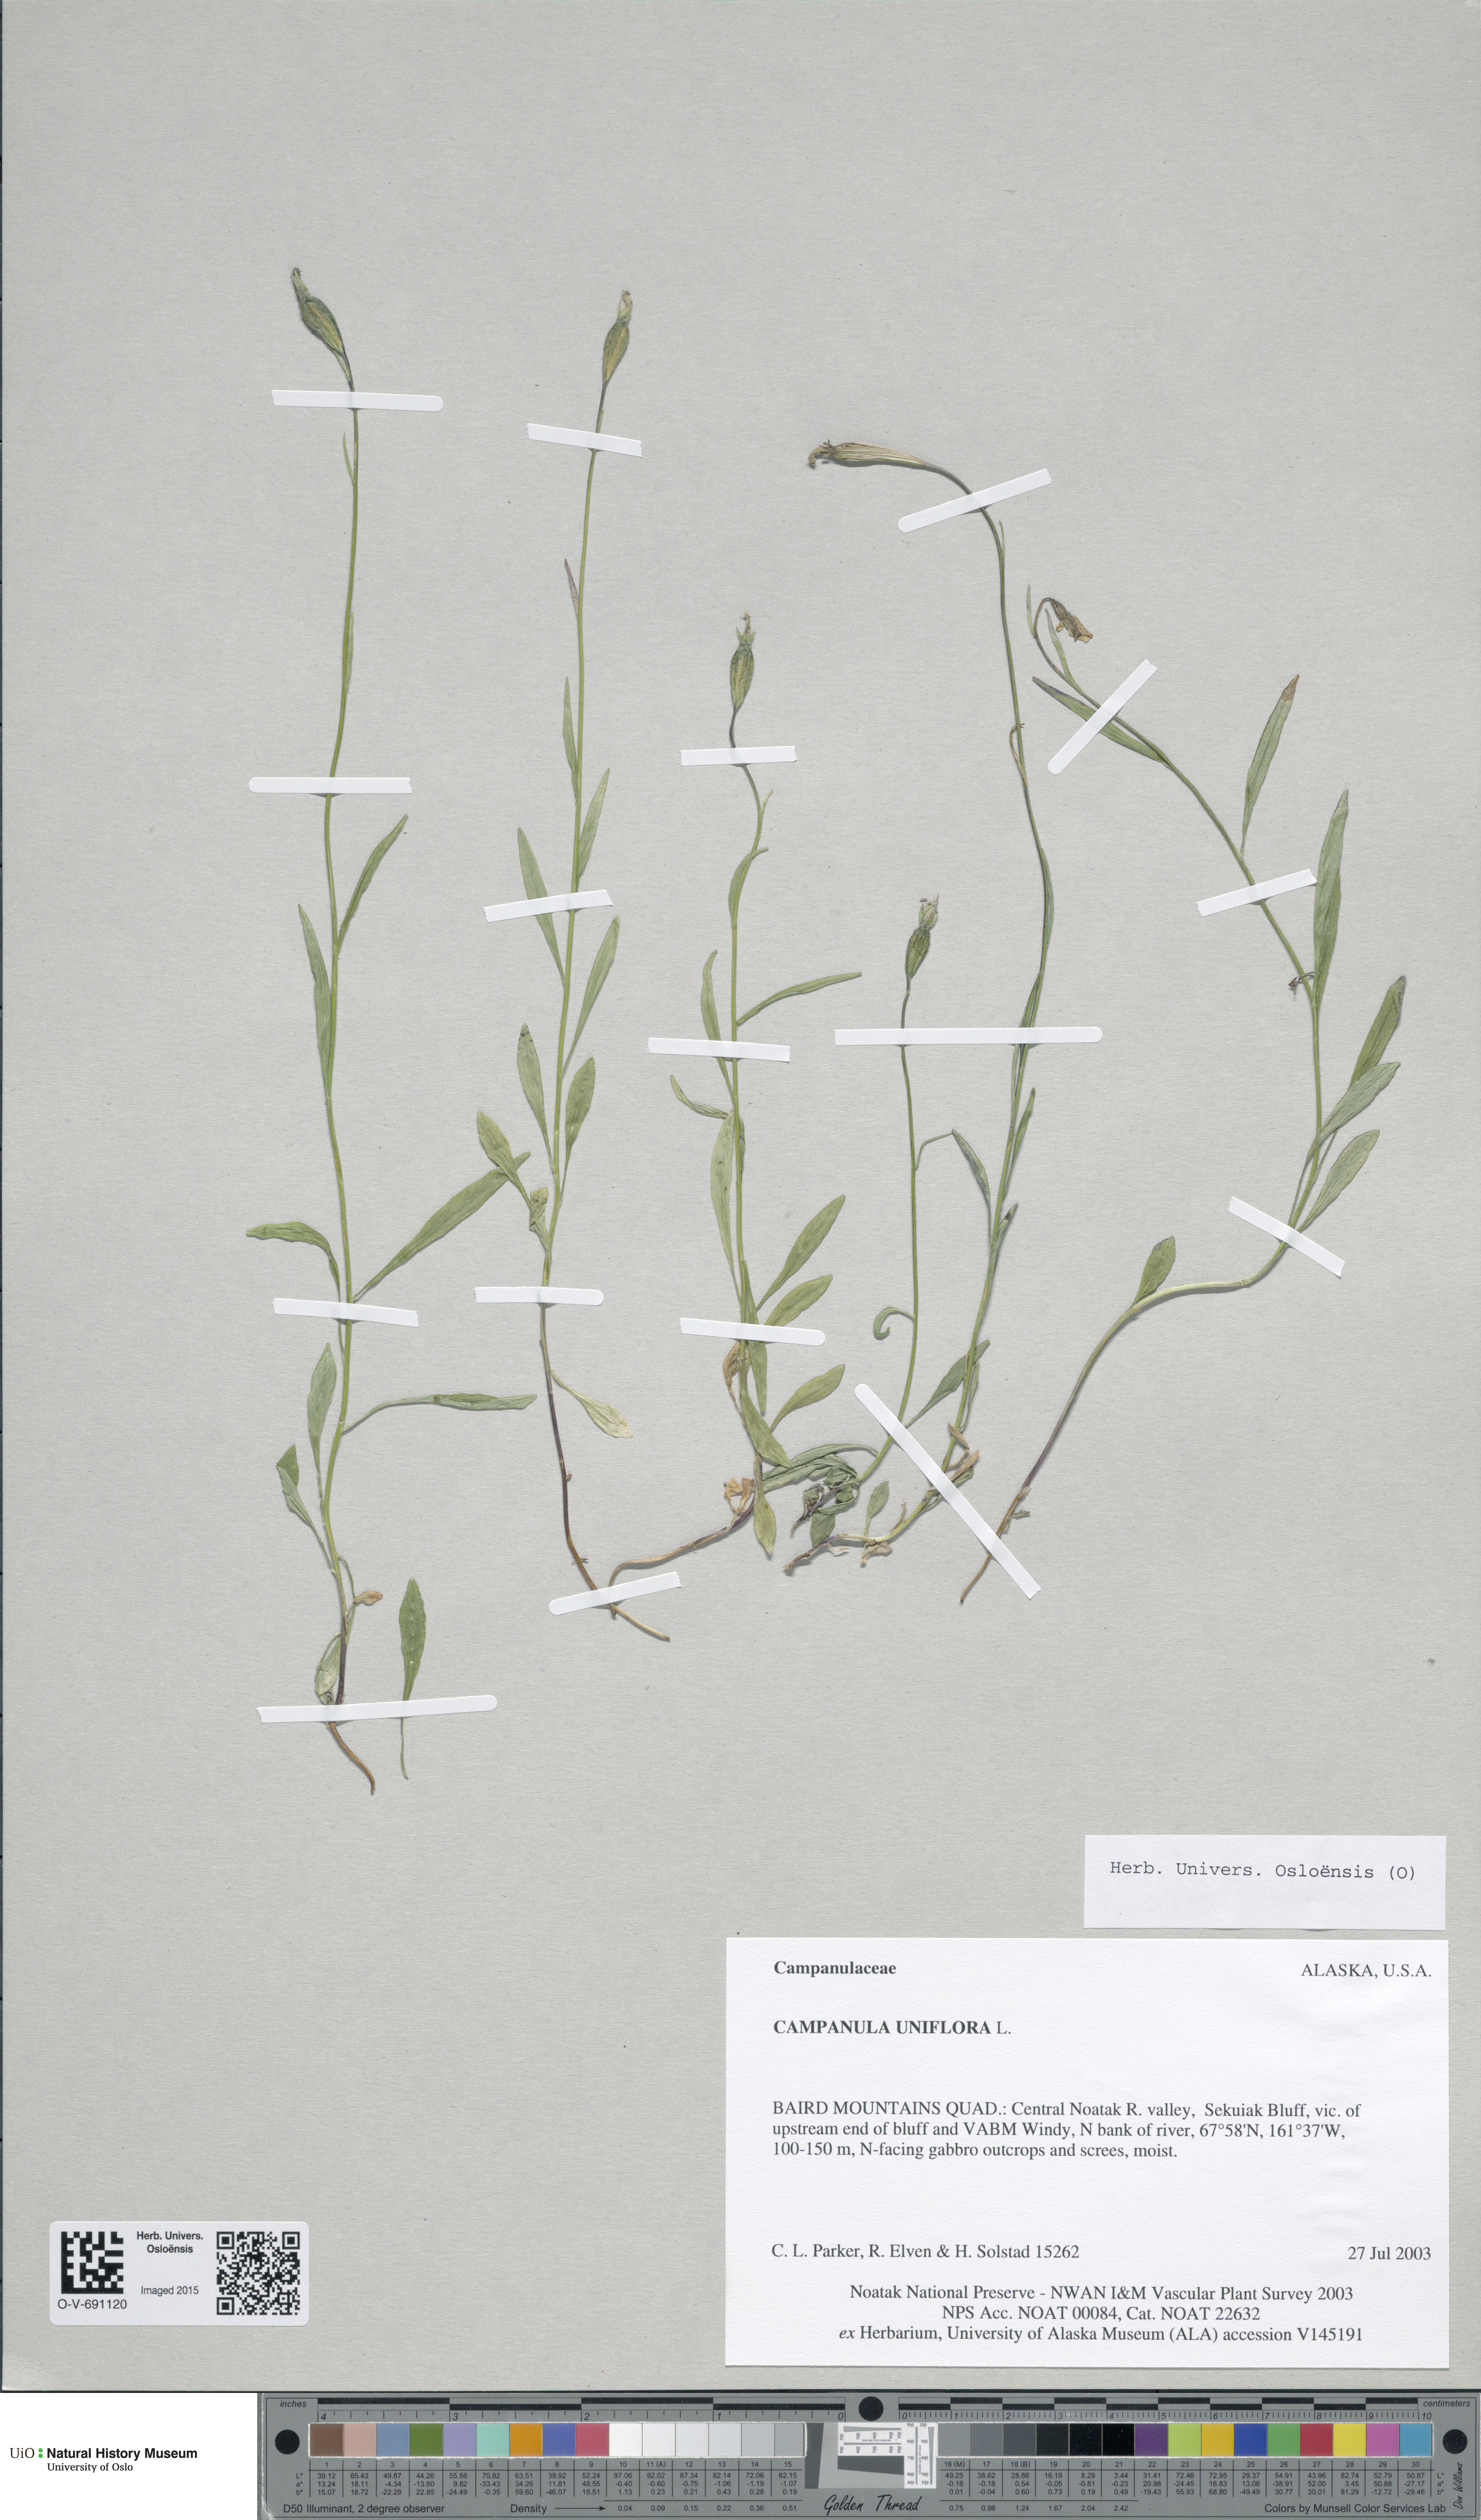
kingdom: Plantae
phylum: Tracheophyta
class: Magnoliopsida
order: Asterales
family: Campanulaceae
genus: Melanocalyx
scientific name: Melanocalyx uniflora
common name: Alpine harebell
